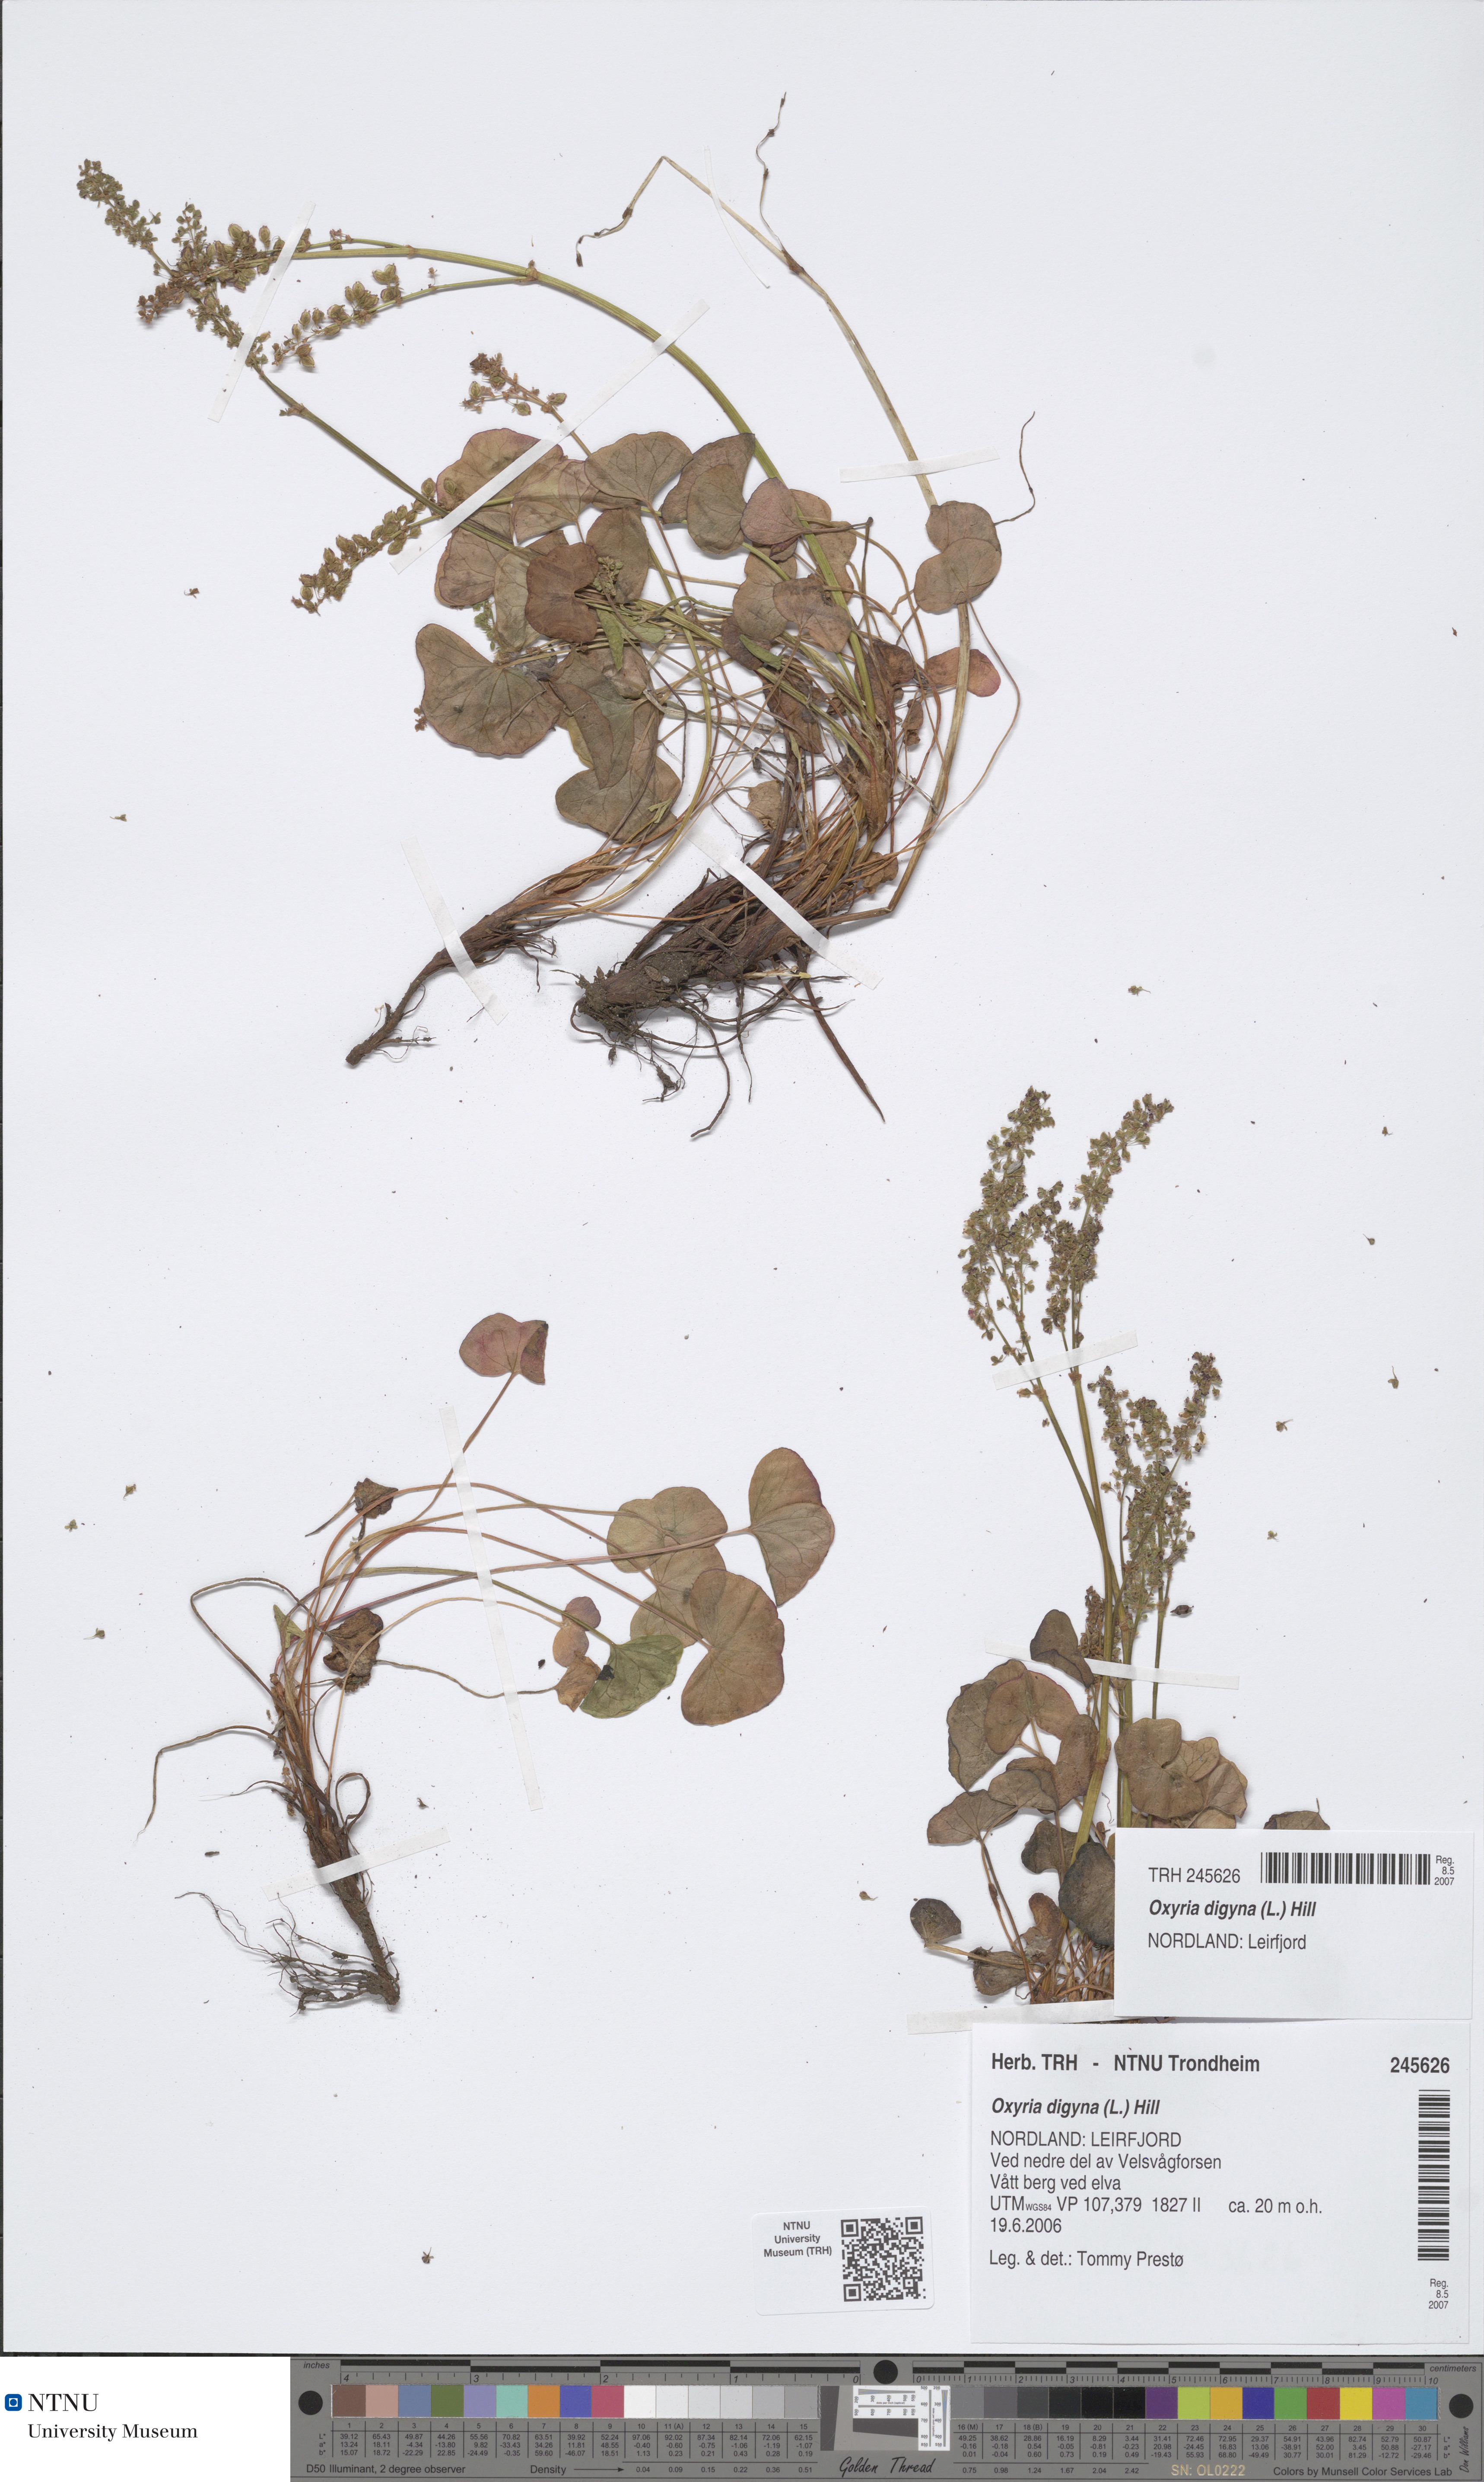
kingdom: Plantae
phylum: Tracheophyta
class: Magnoliopsida
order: Caryophyllales
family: Polygonaceae
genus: Oxyria
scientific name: Oxyria digyna
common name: Alpine mountain-sorrel
